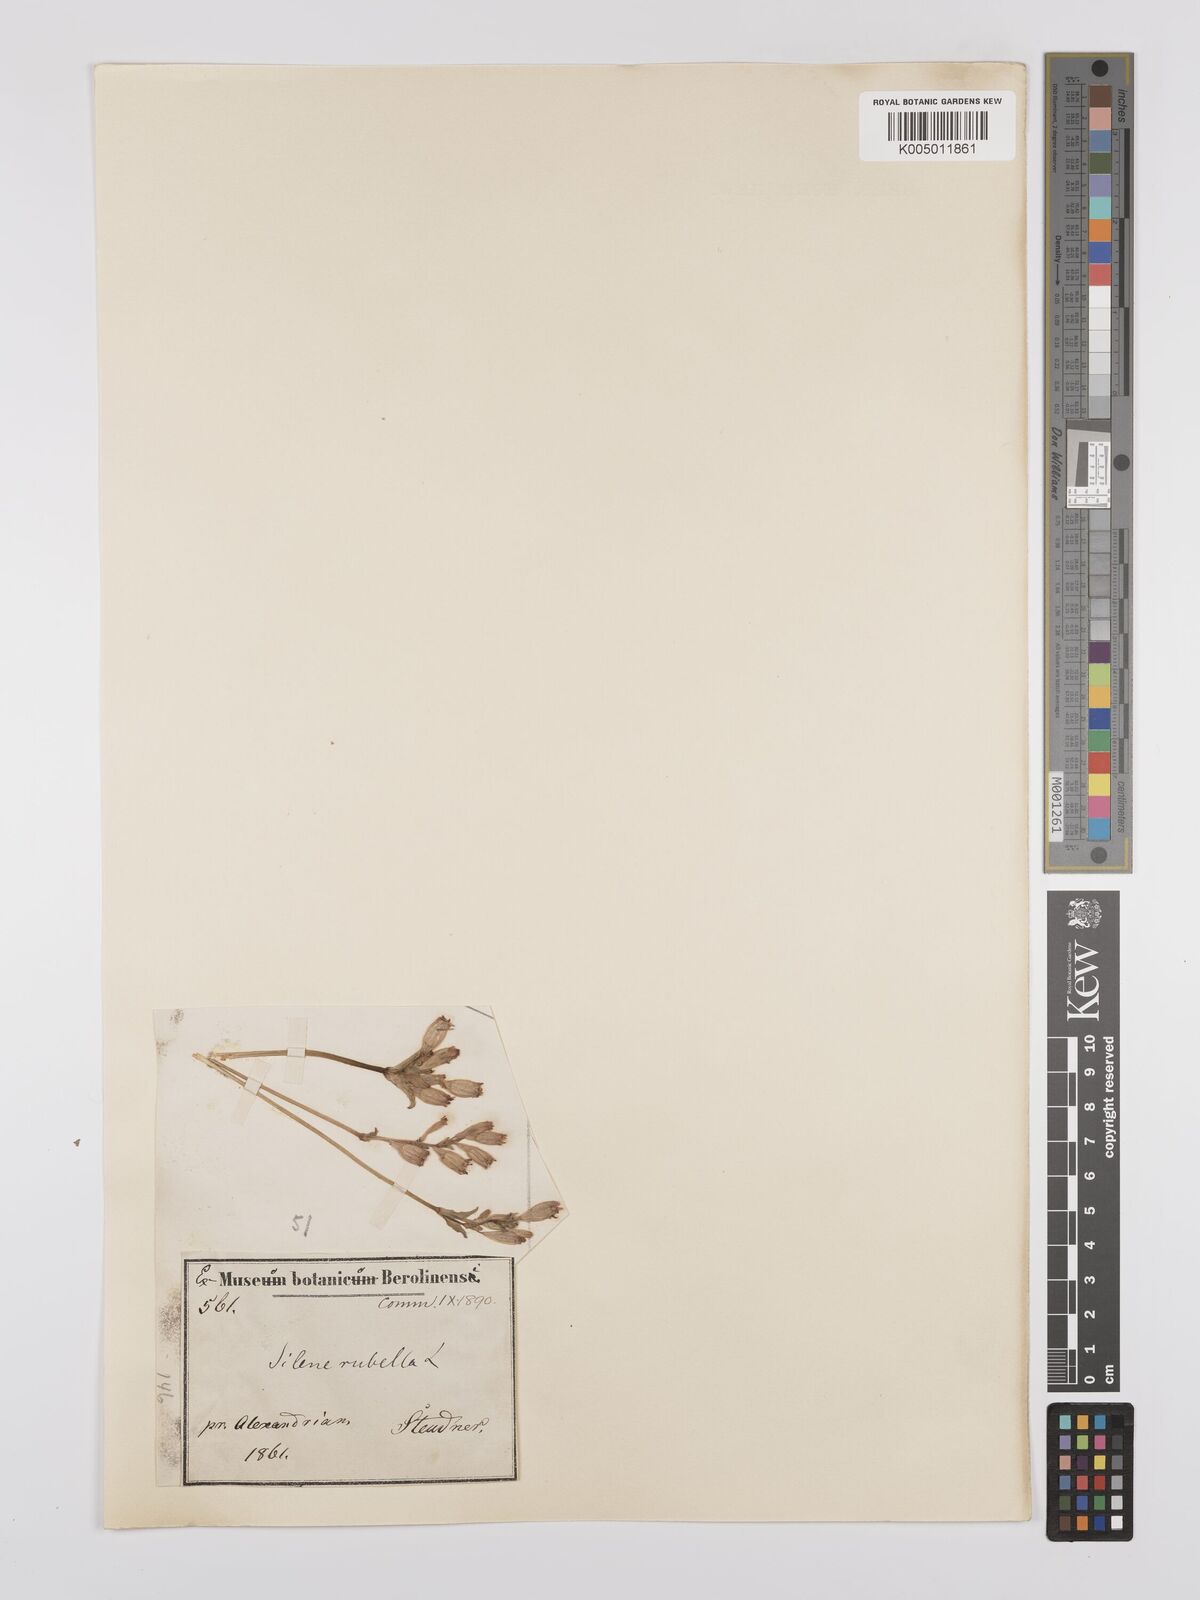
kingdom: Plantae
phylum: Tracheophyta
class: Magnoliopsida
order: Caryophyllales
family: Caryophyllaceae
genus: Silene
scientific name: Silene rubella
